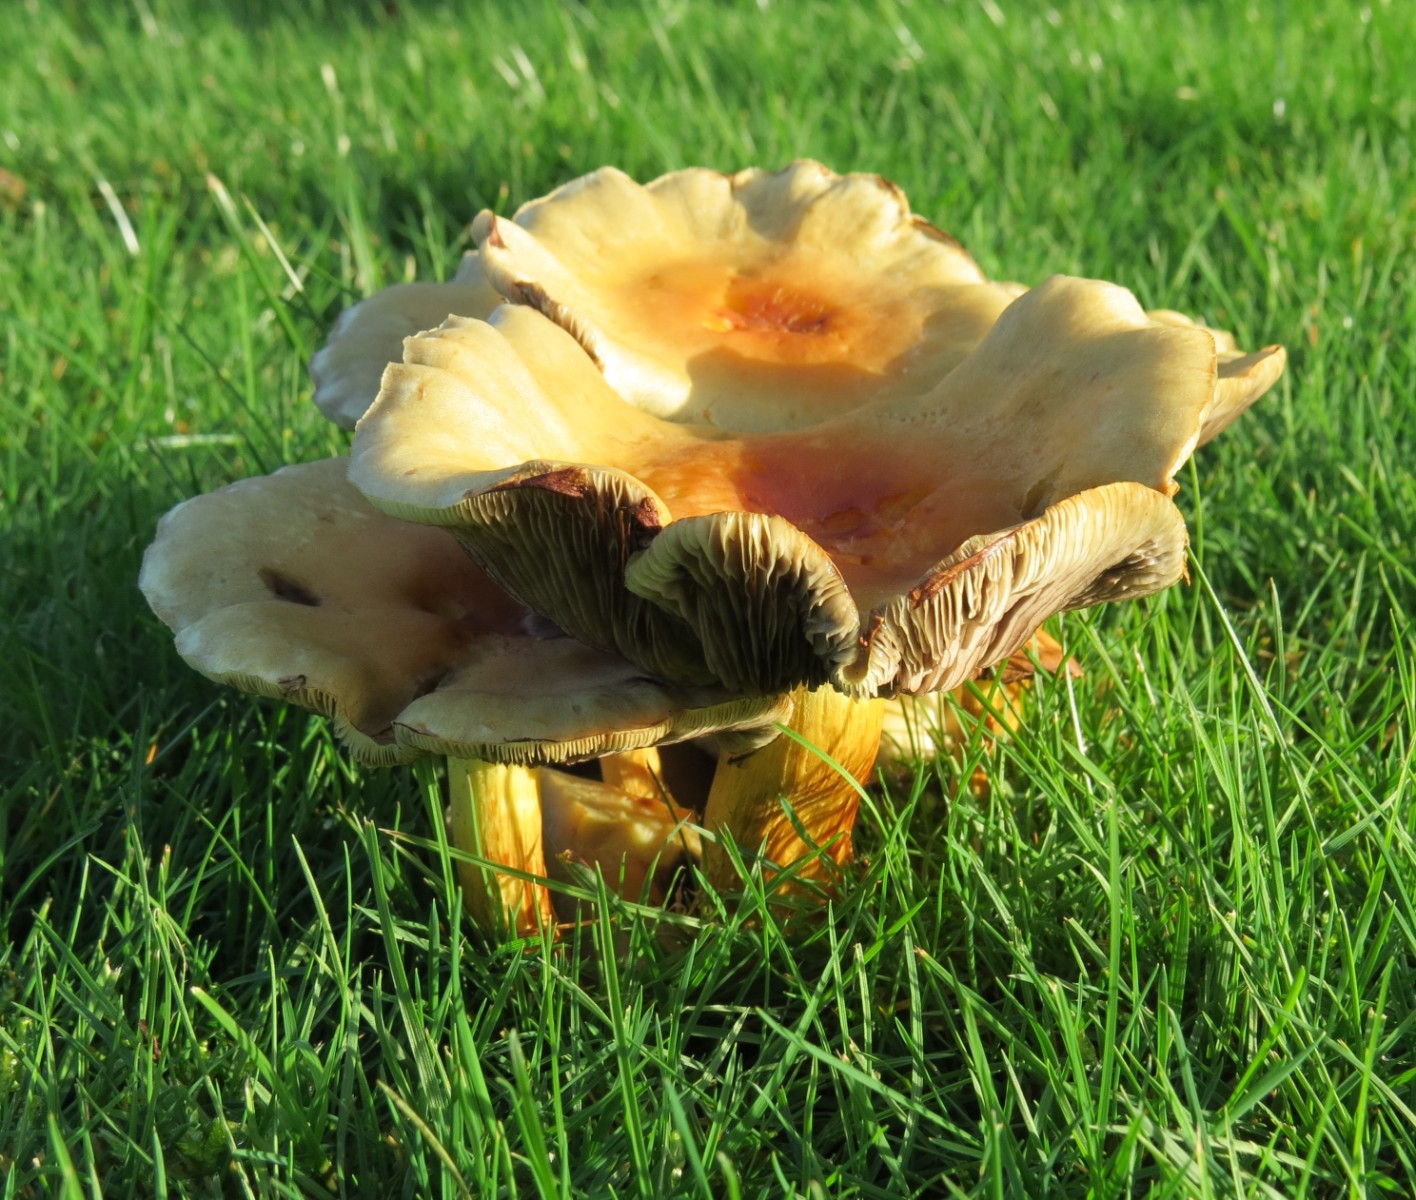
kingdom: Fungi
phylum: Basidiomycota
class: Agaricomycetes
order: Agaricales
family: Strophariaceae
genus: Hypholoma
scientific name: Hypholoma fasciculare
